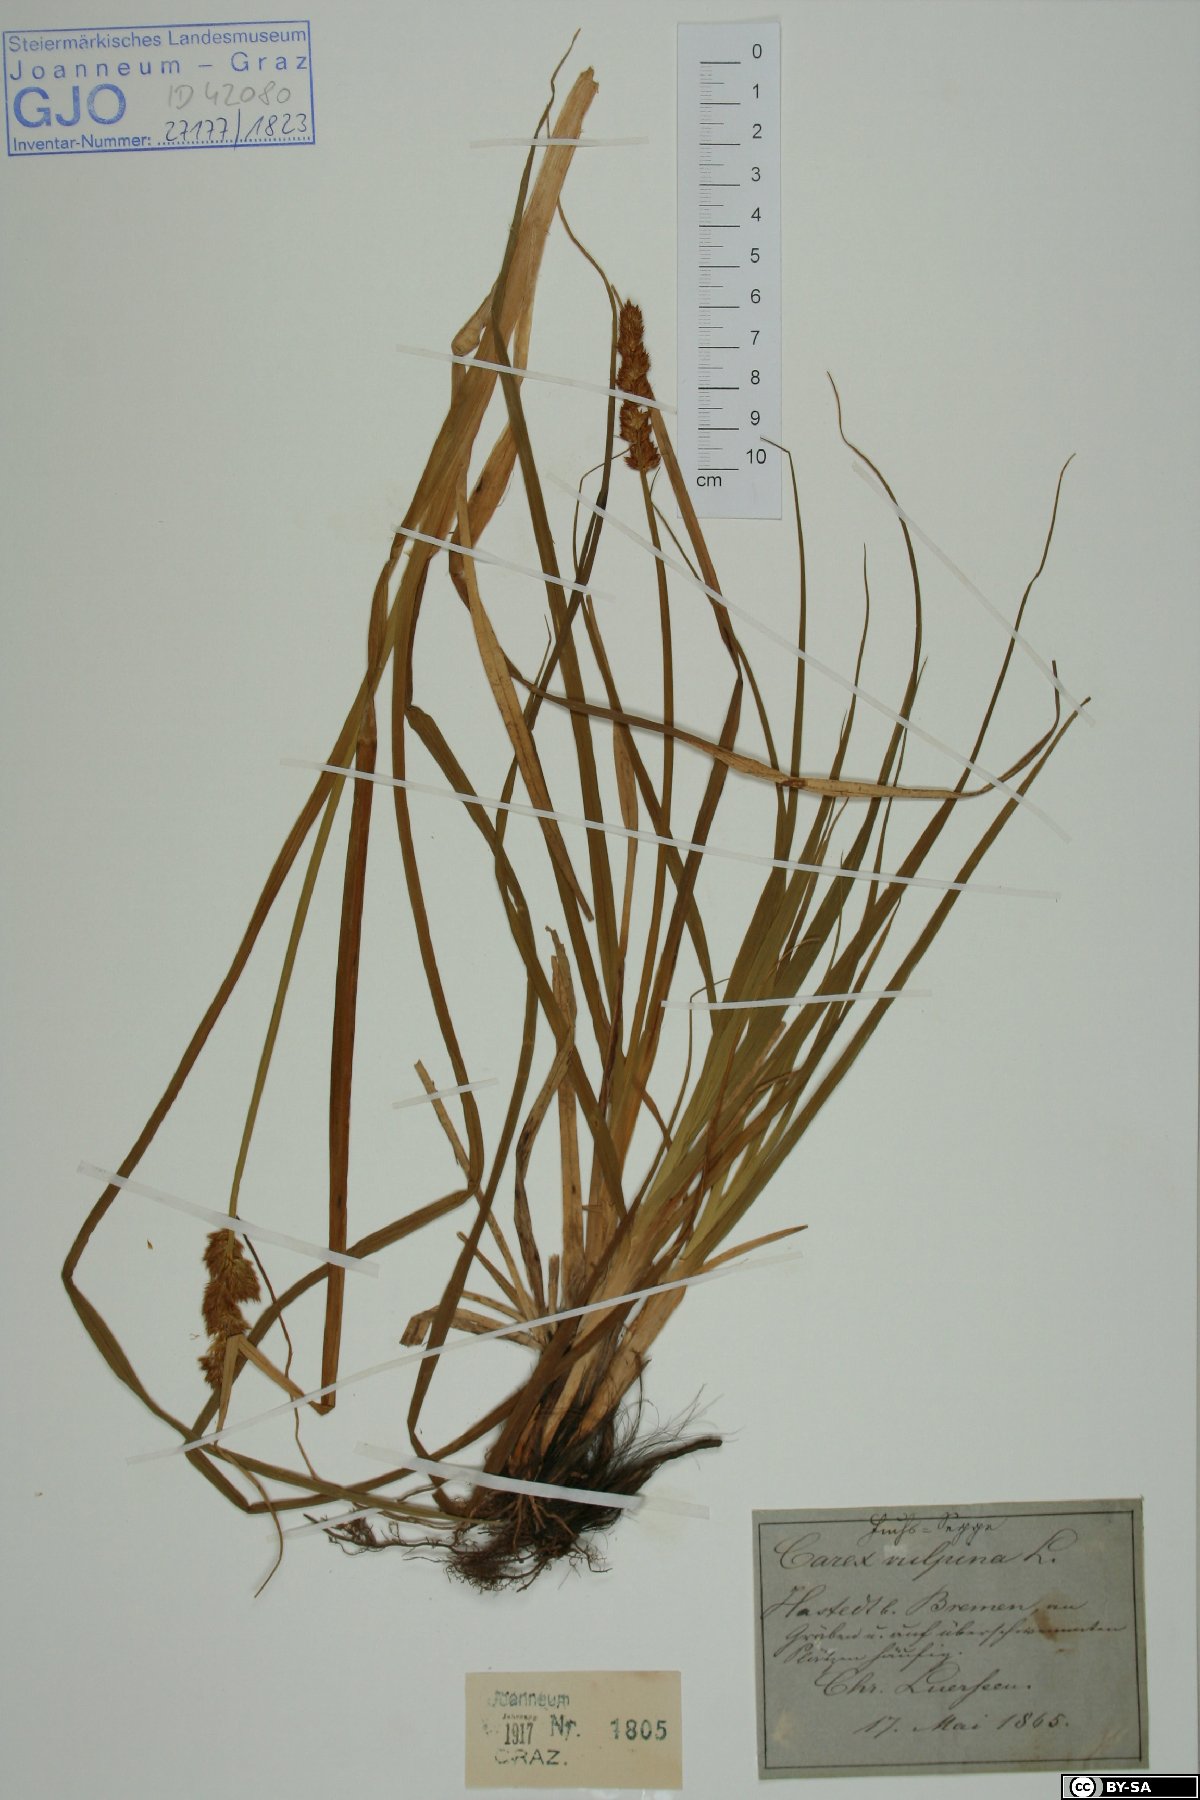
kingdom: Plantae
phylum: Tracheophyta
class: Liliopsida
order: Poales
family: Cyperaceae
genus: Carex
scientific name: Carex vulpina
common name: True fox-sedge
